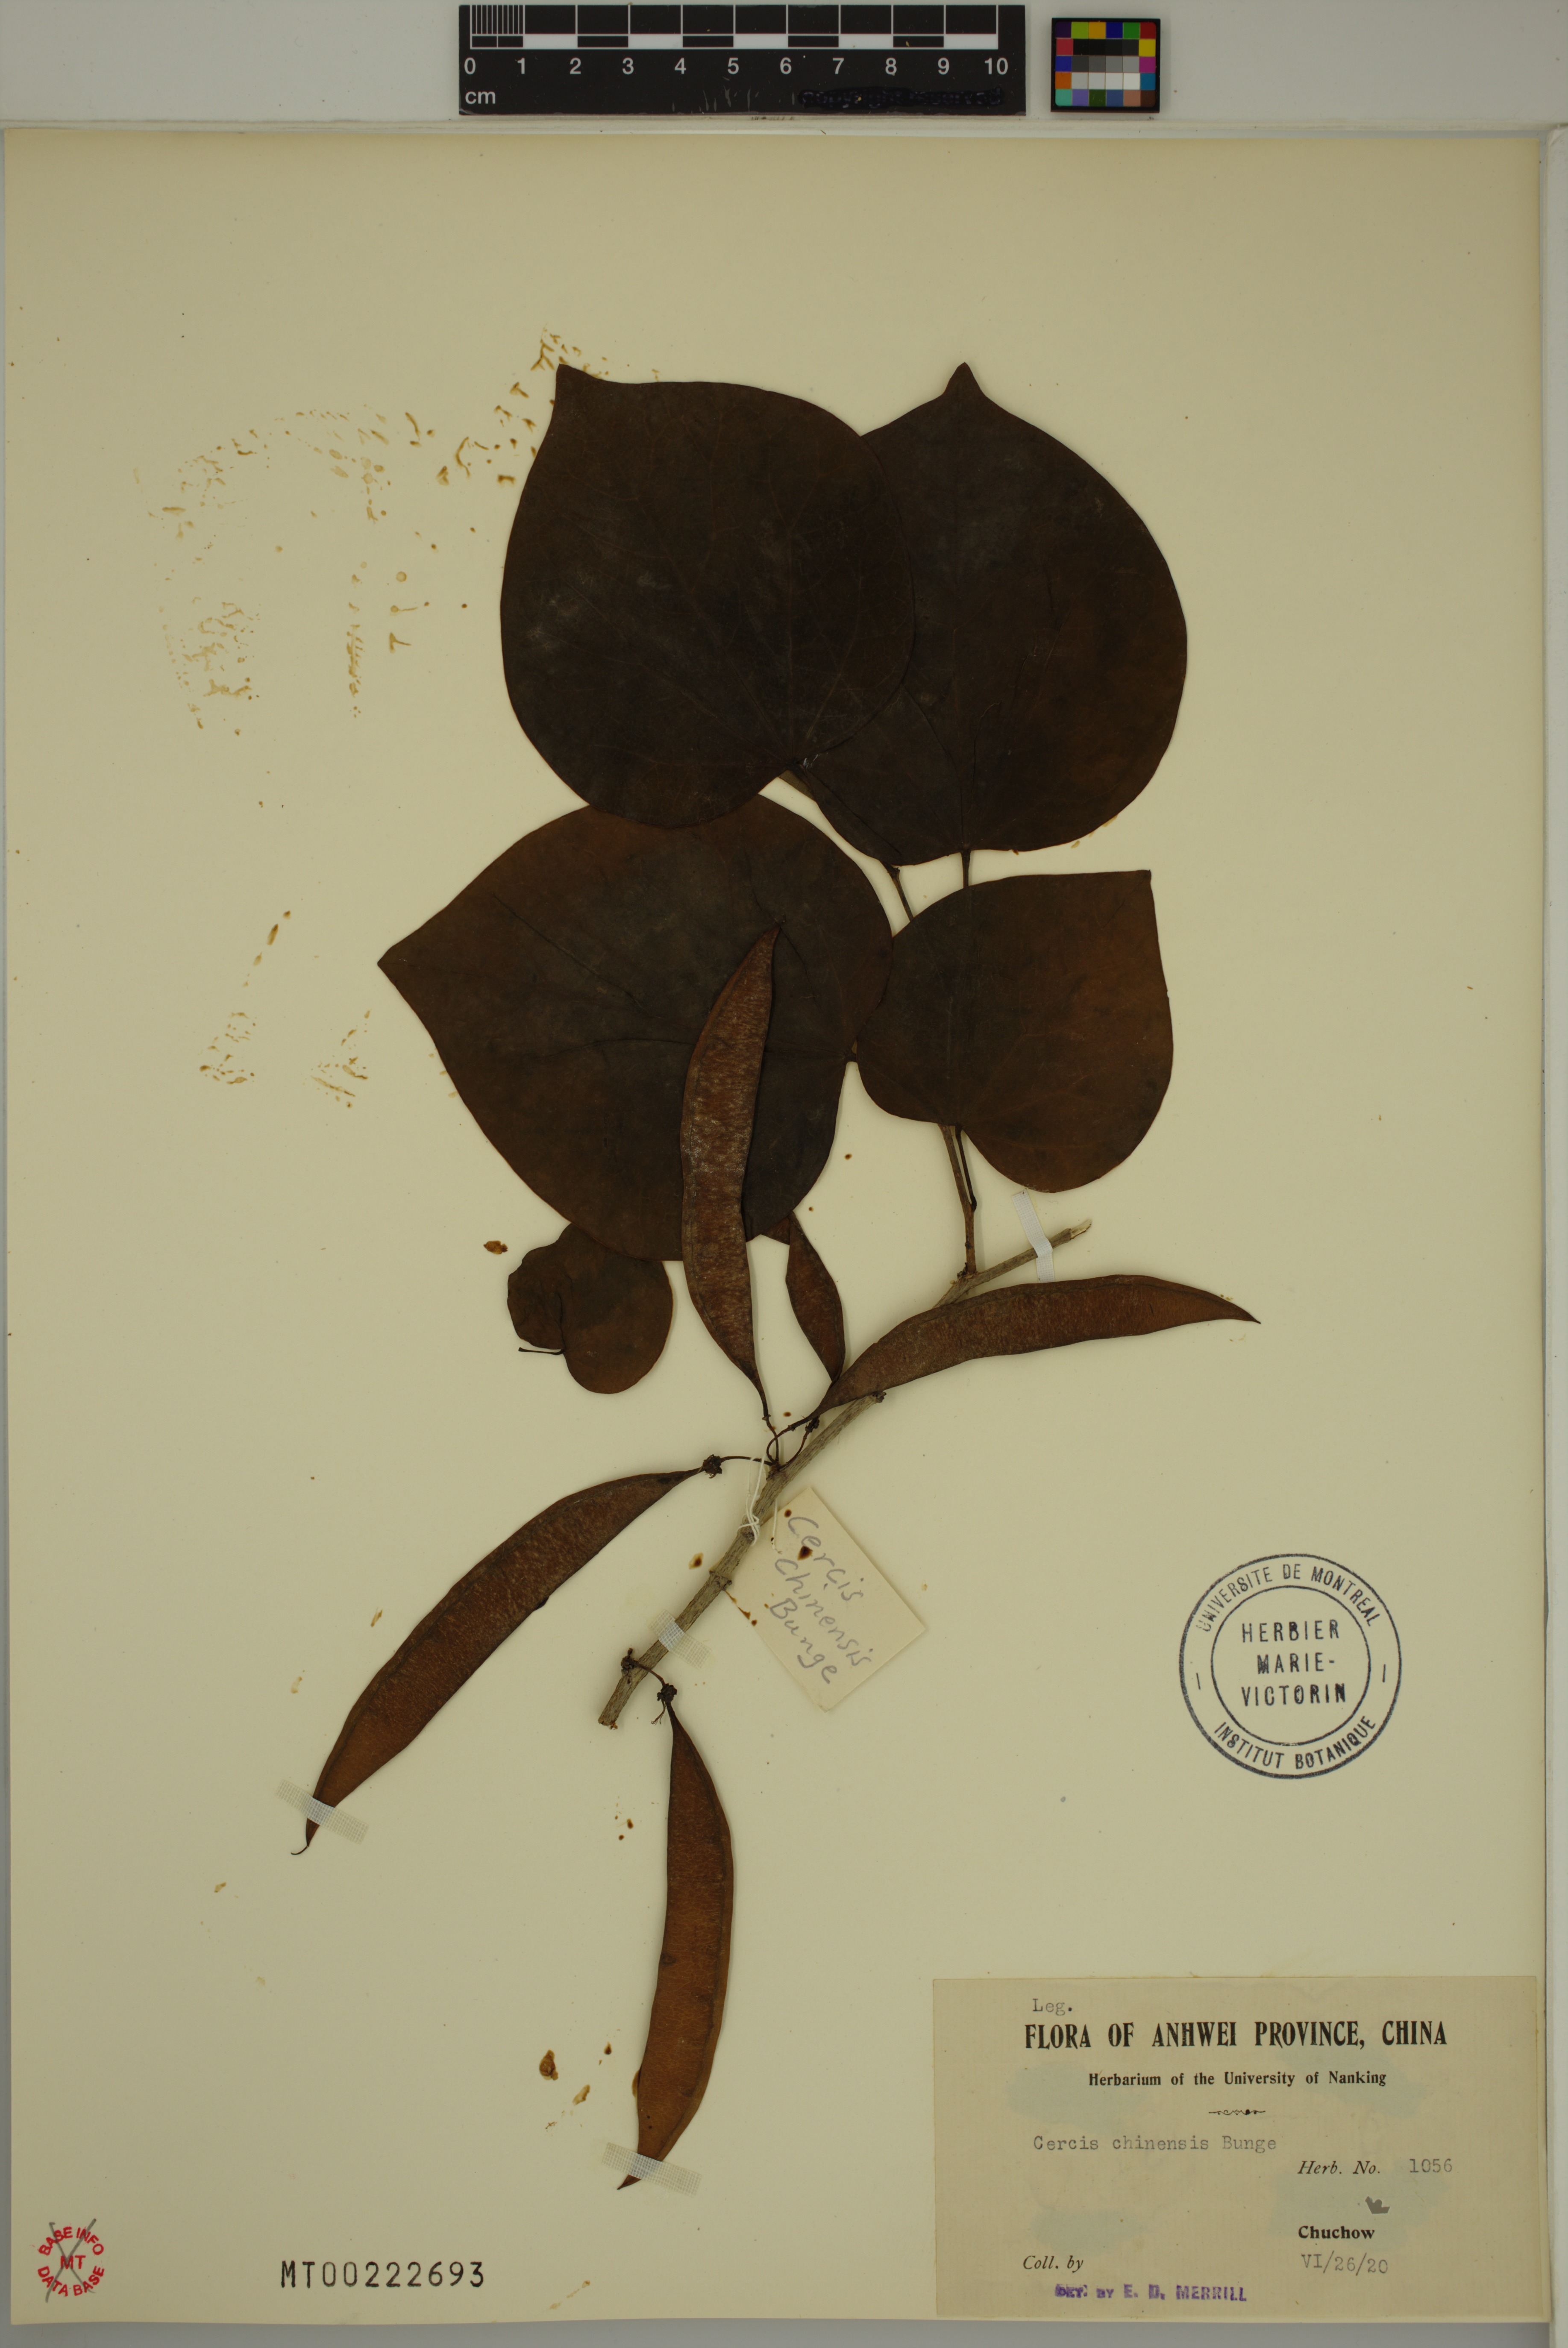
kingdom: Plantae
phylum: Tracheophyta
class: Magnoliopsida
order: Fabales
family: Fabaceae
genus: Cercis
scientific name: Cercis chinensis
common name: Chinese redbud
